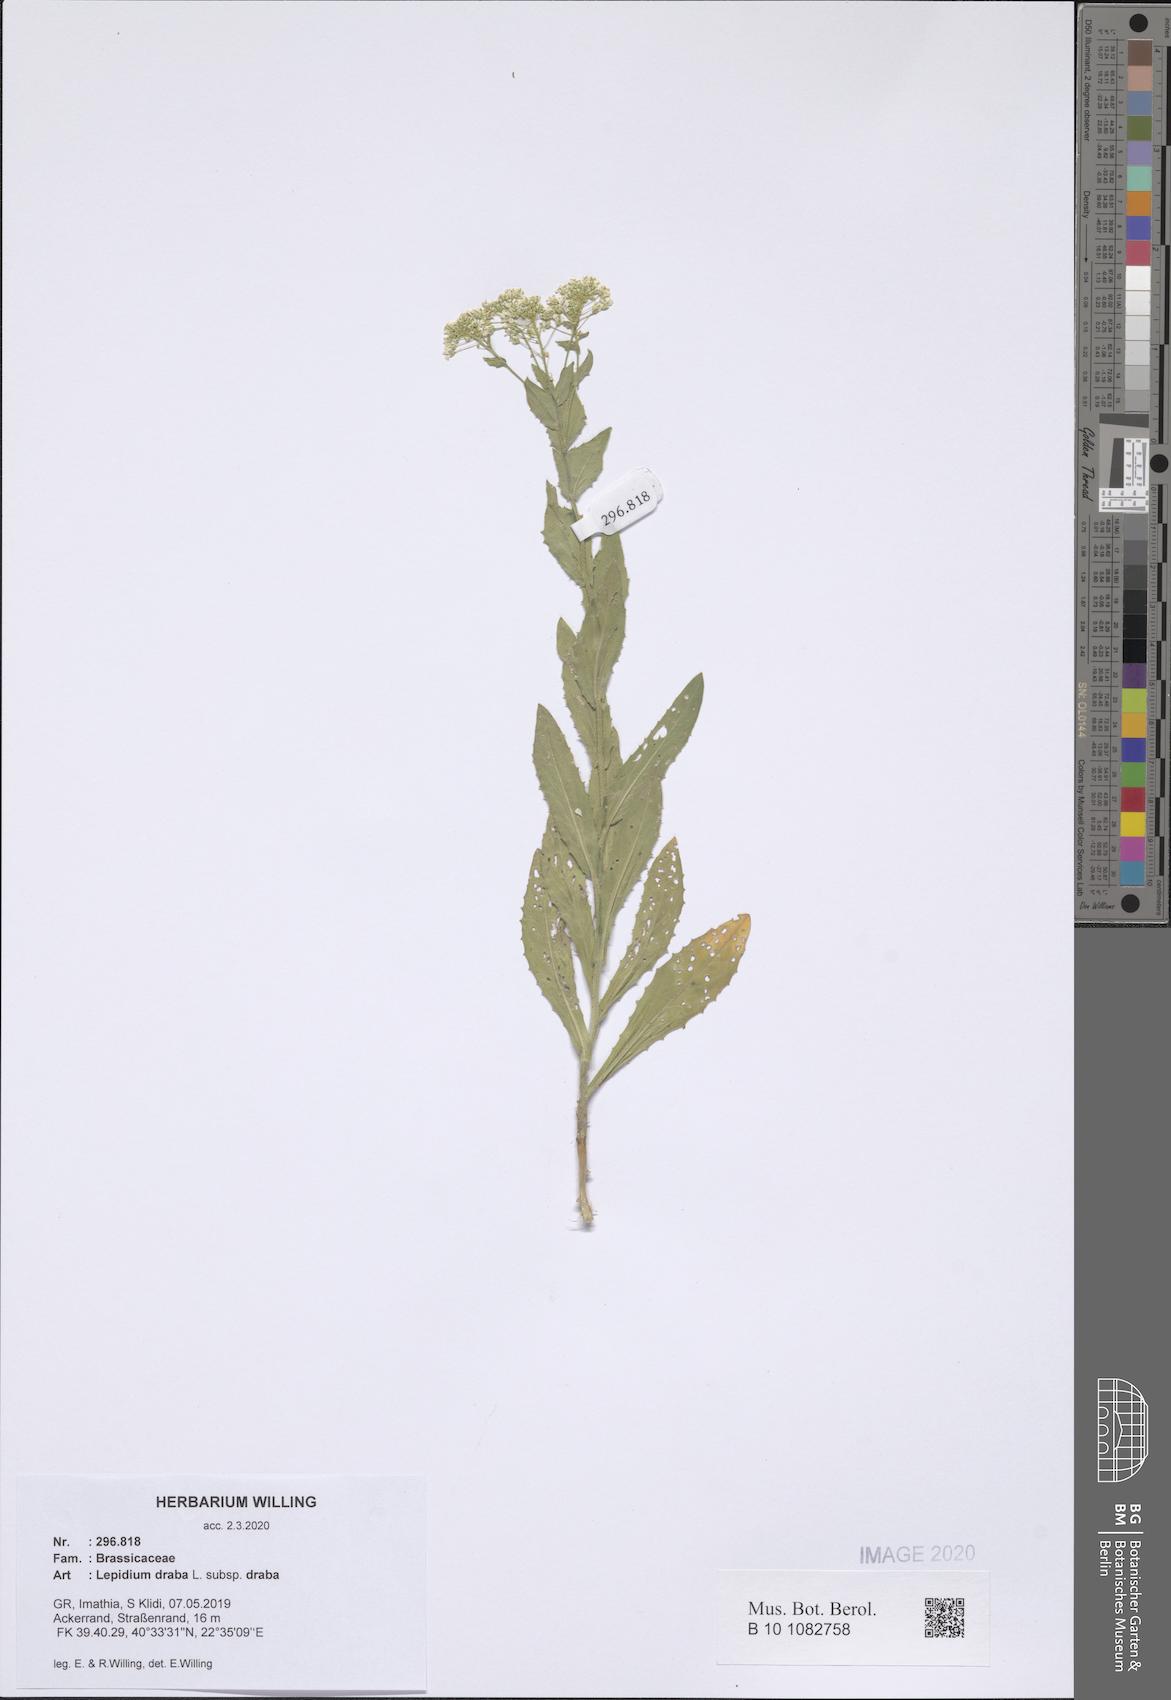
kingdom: Plantae
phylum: Tracheophyta
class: Magnoliopsida
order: Brassicales
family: Brassicaceae
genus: Lepidium
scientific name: Lepidium draba
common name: Hoary cress
